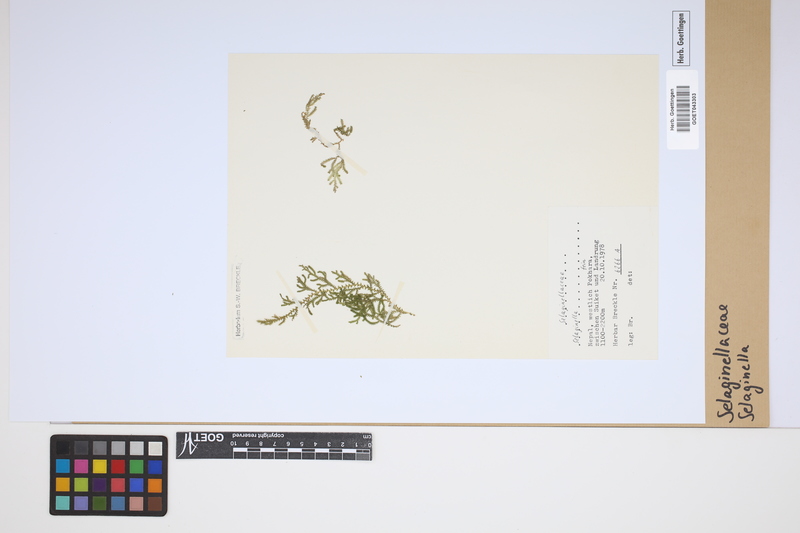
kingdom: Plantae
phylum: Tracheophyta
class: Lycopodiopsida
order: Selaginellales
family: Selaginellaceae
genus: Selaginella
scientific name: Selaginella
